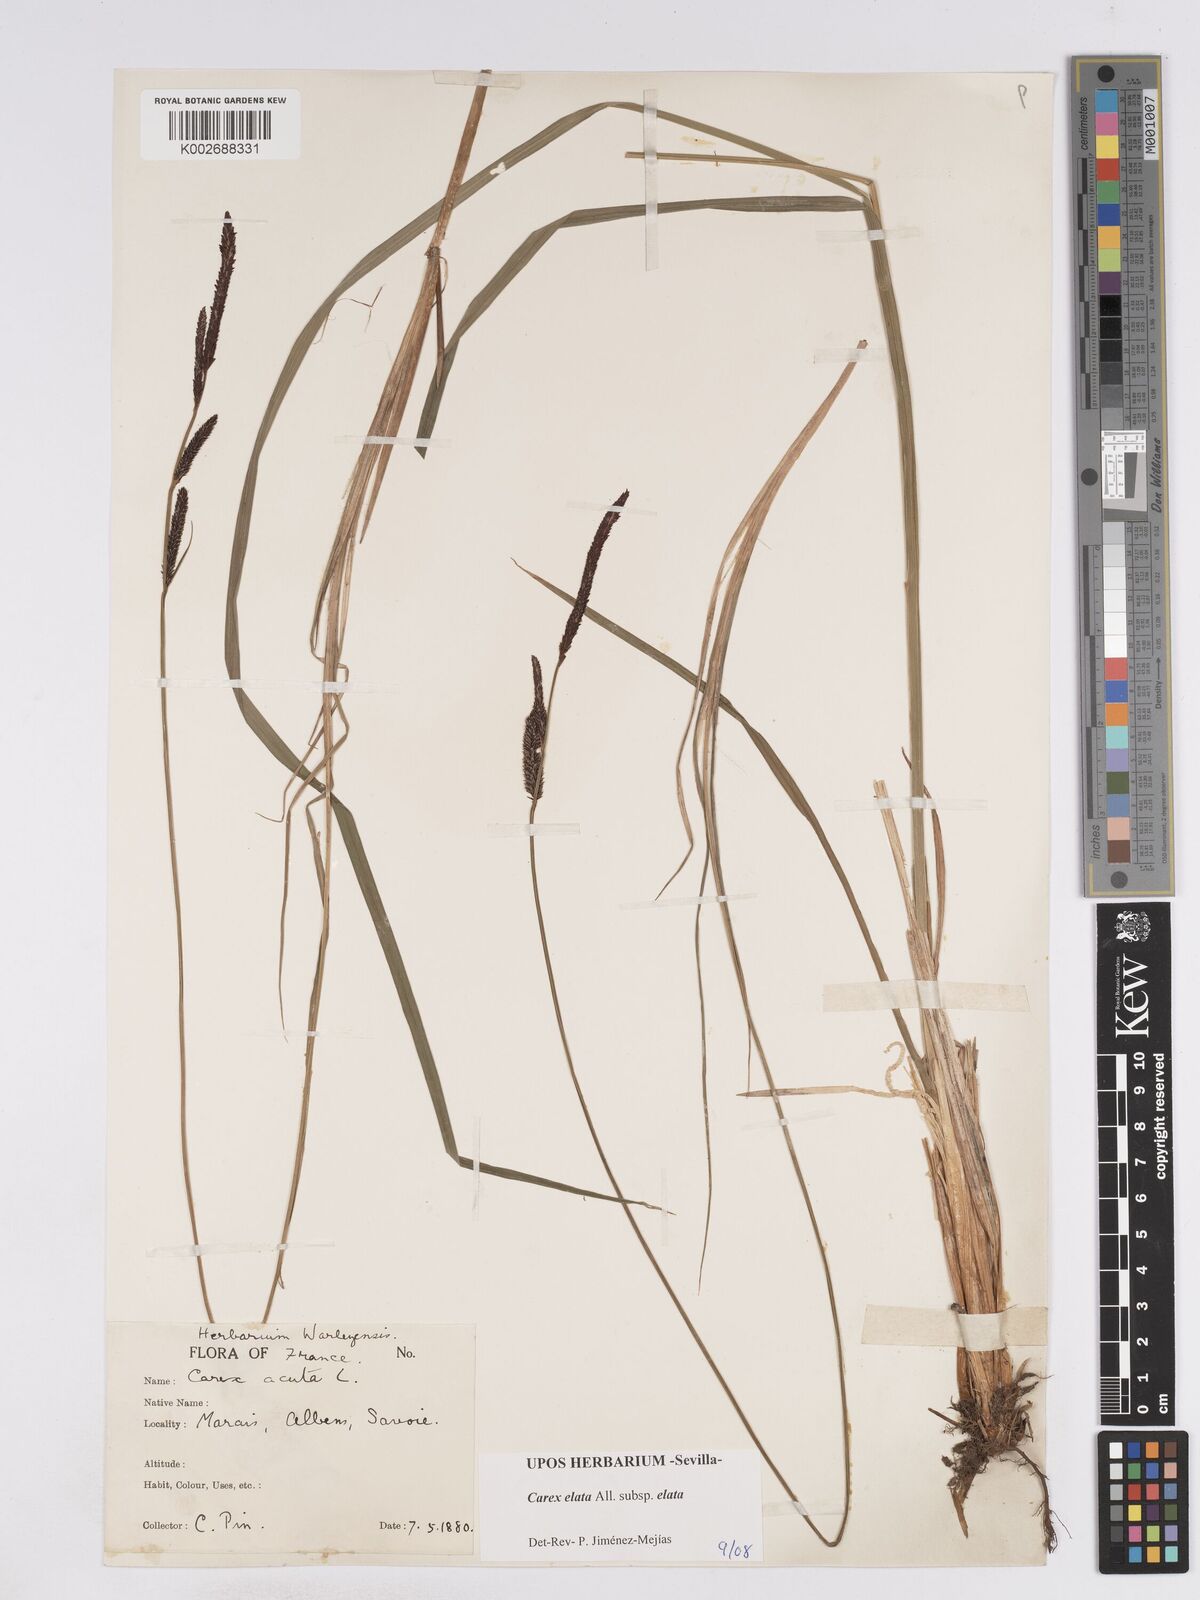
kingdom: Plantae
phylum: Tracheophyta
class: Liliopsida
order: Poales
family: Cyperaceae
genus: Carex
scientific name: Carex elata
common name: Tufted sedge
